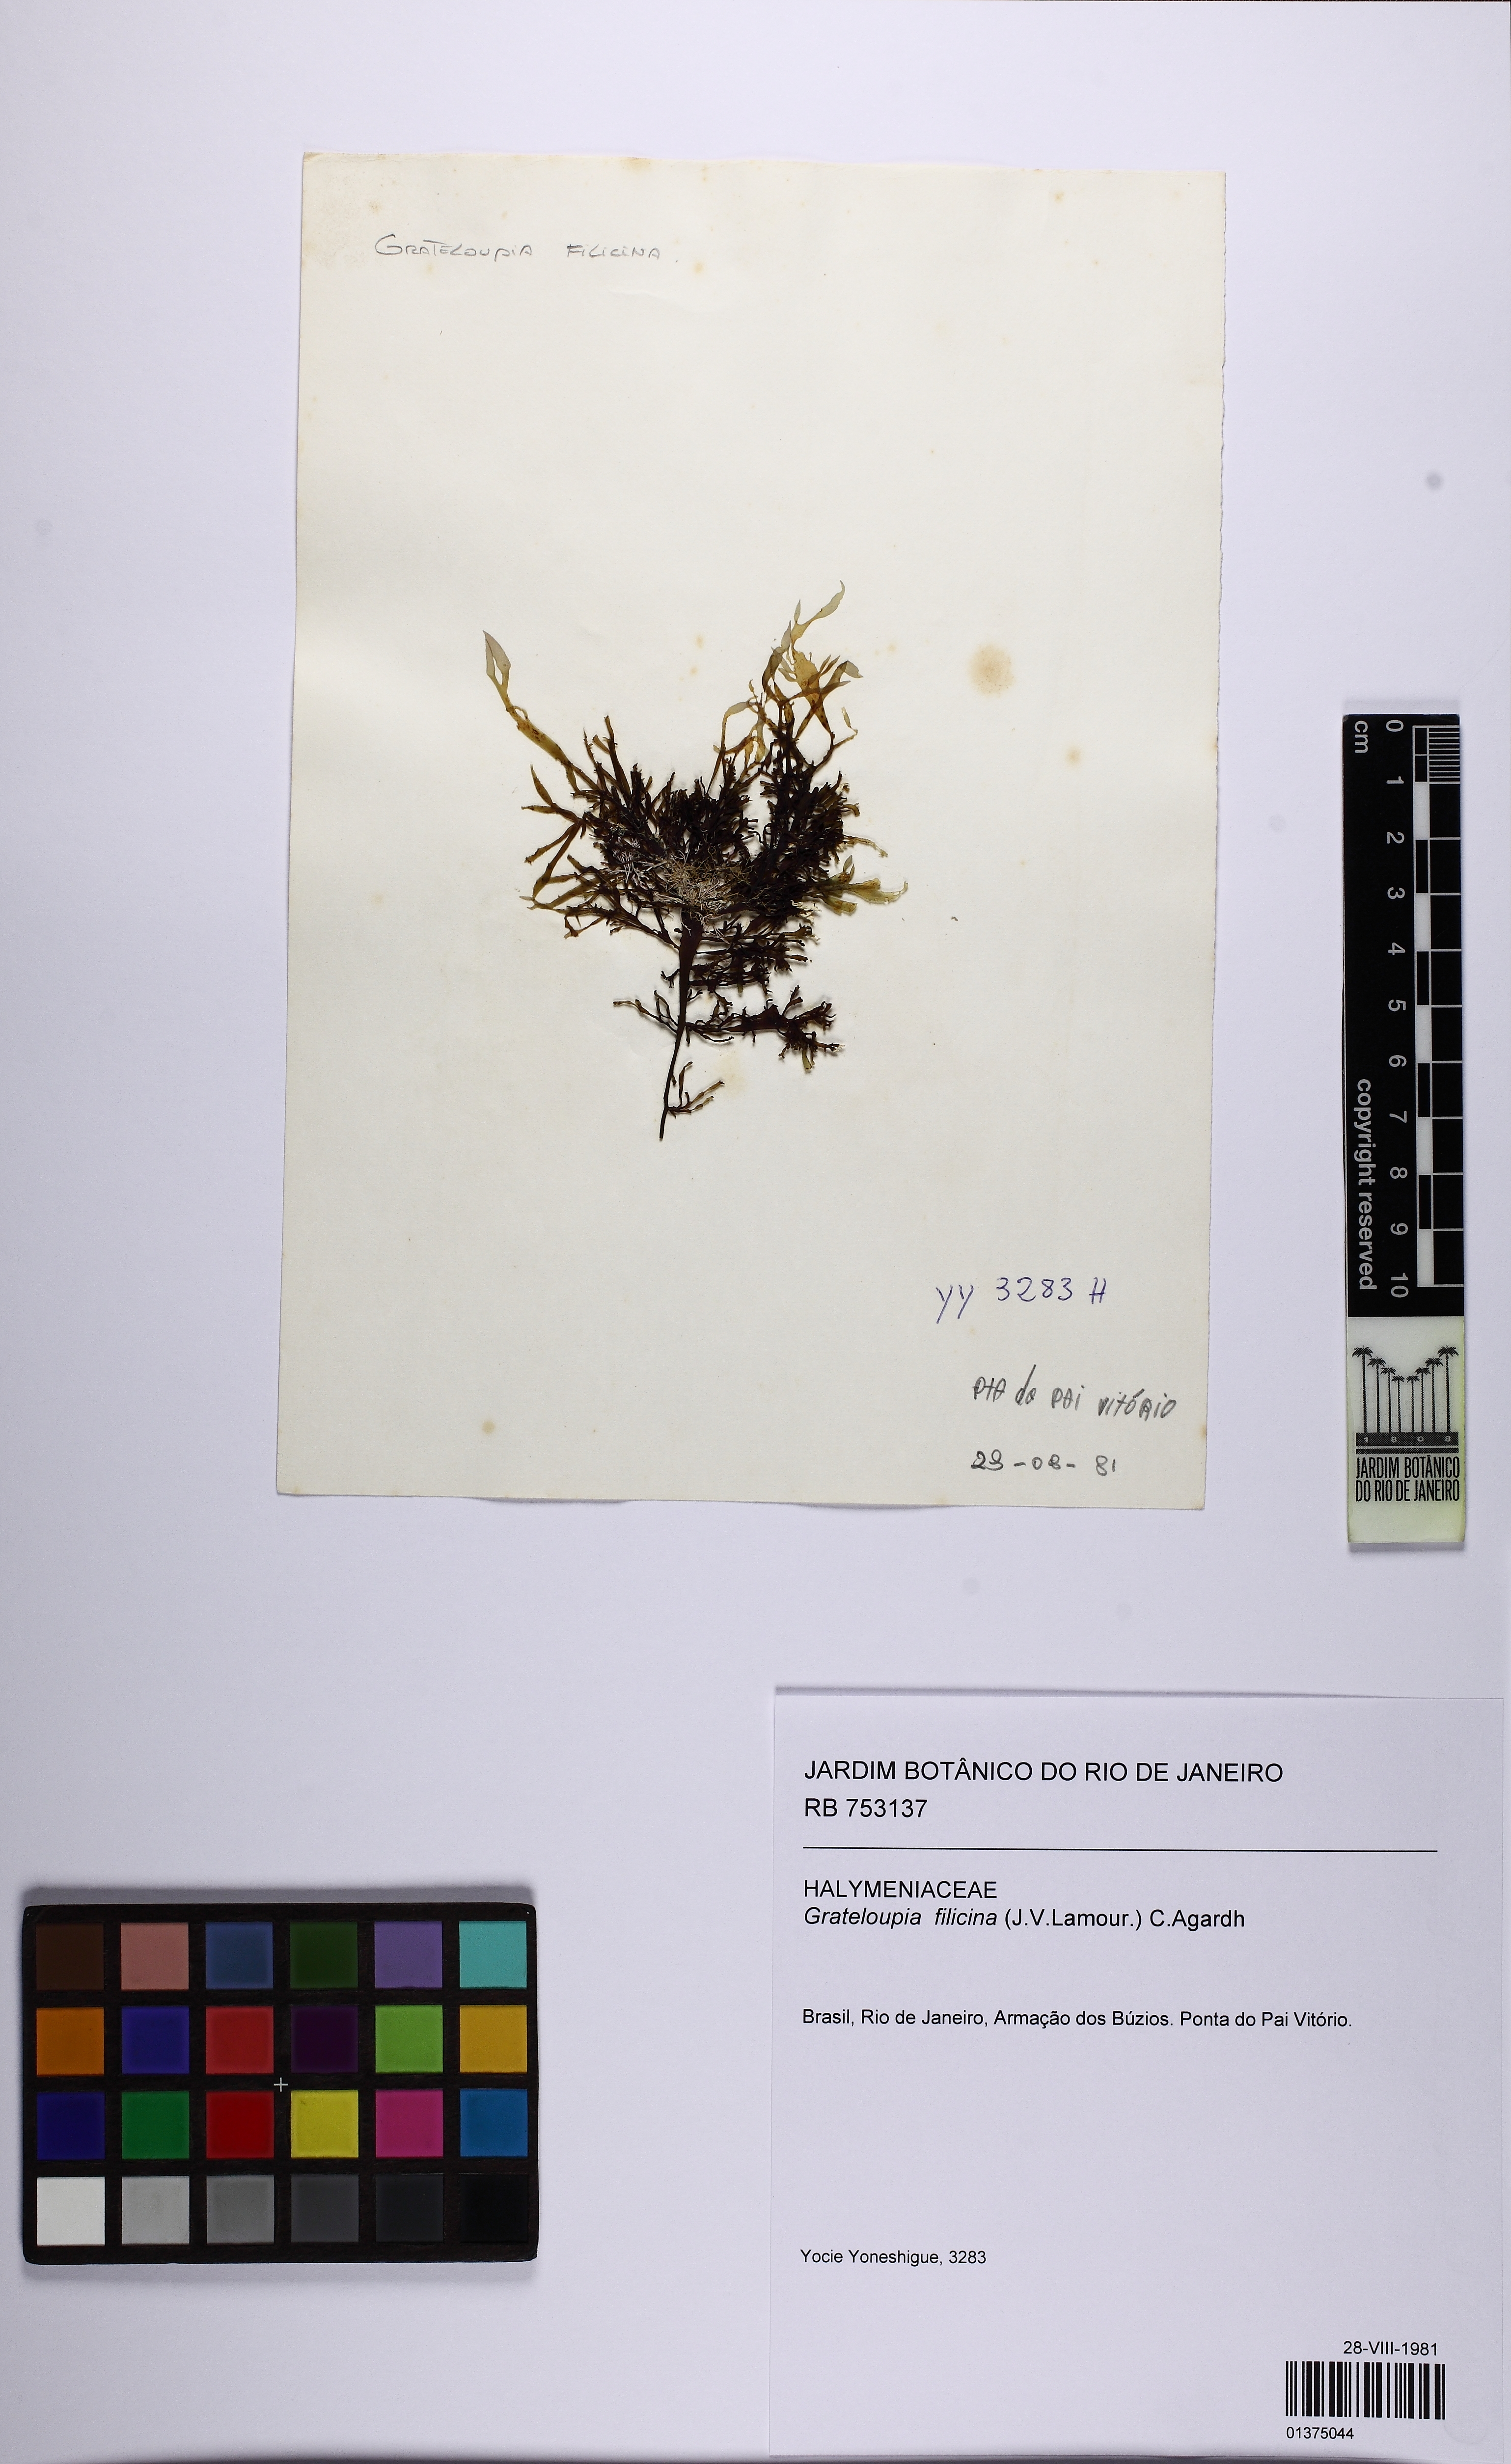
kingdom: Plantae
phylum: Rhodophyta
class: Florideophyceae
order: Halymeniales
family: Halymeniaceae
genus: Grateloupia
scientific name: Grateloupia filicina
